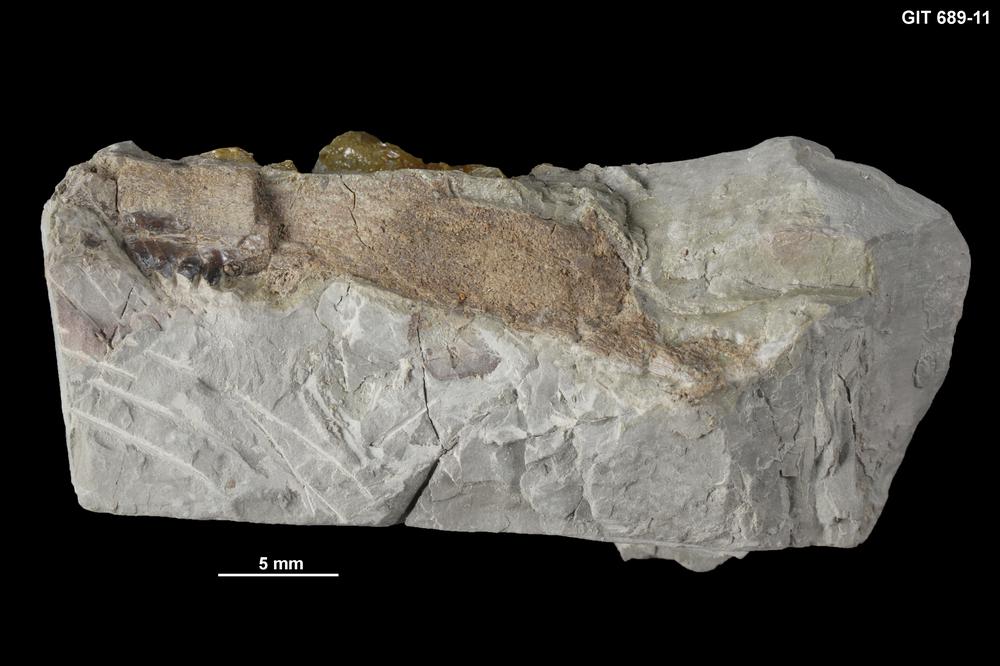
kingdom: Animalia
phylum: Chordata
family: Plourdosteidae
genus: Protitanichthys
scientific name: Protitanichthys
